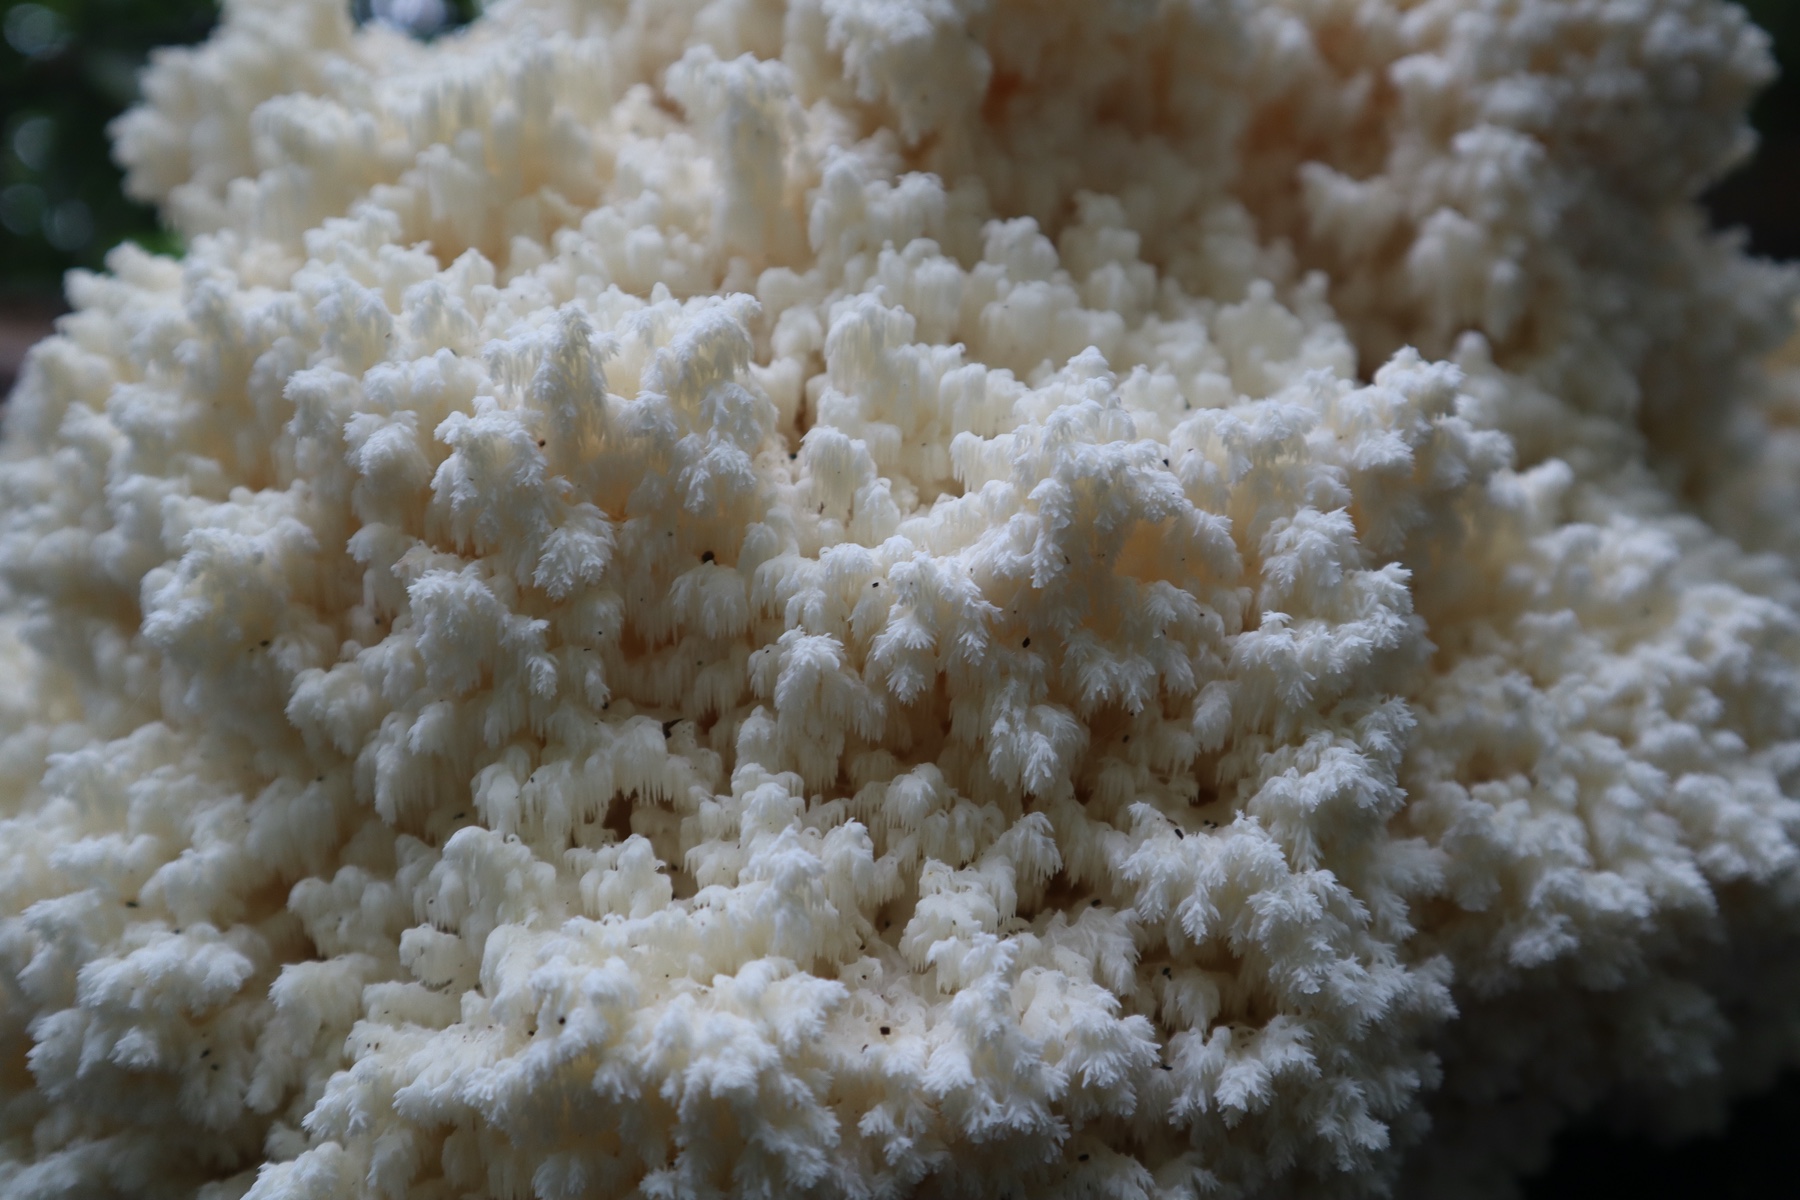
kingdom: Fungi
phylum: Basidiomycota
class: Agaricomycetes
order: Russulales
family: Hericiaceae
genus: Hericium
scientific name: Hericium coralloides
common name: koralpigsvamp
